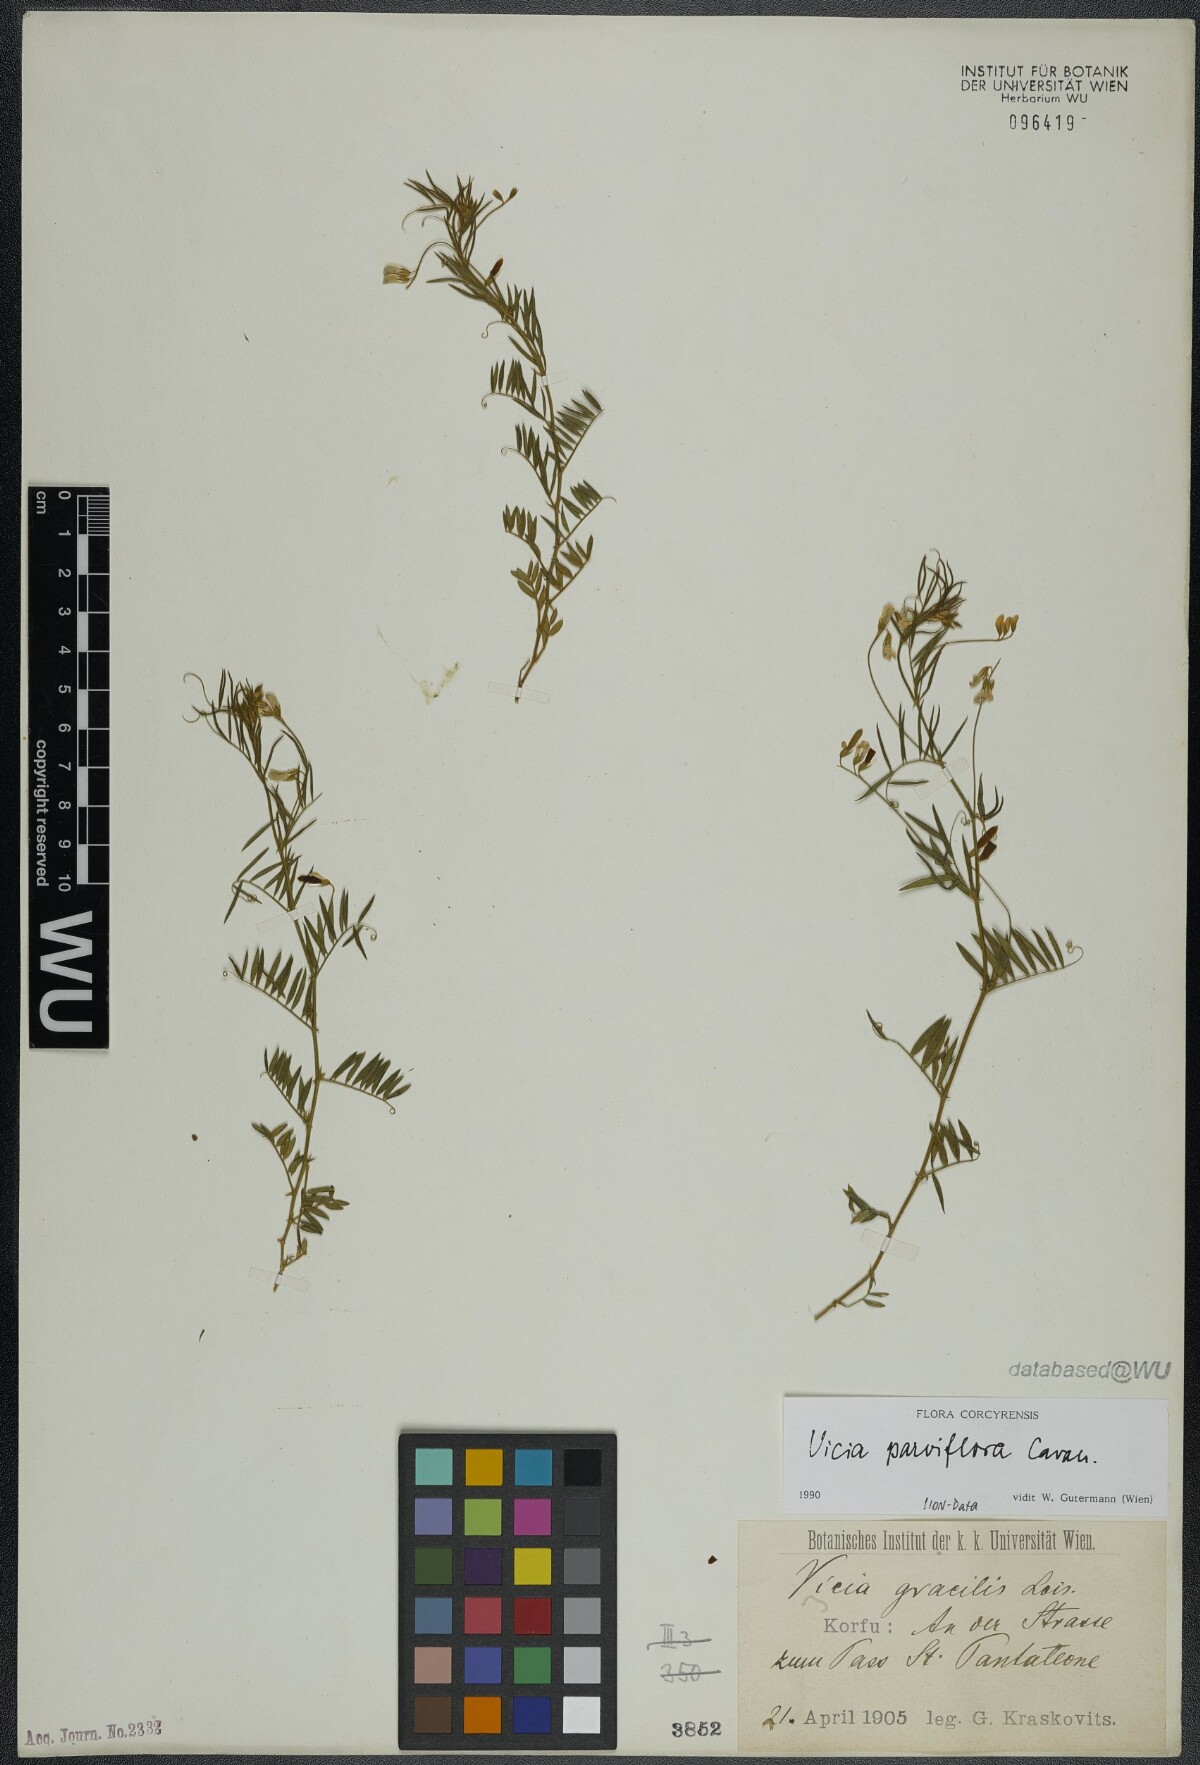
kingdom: Plantae
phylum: Tracheophyta
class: Magnoliopsida
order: Fabales
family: Fabaceae
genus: Vicia
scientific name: Vicia parviflora
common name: Slender tare
